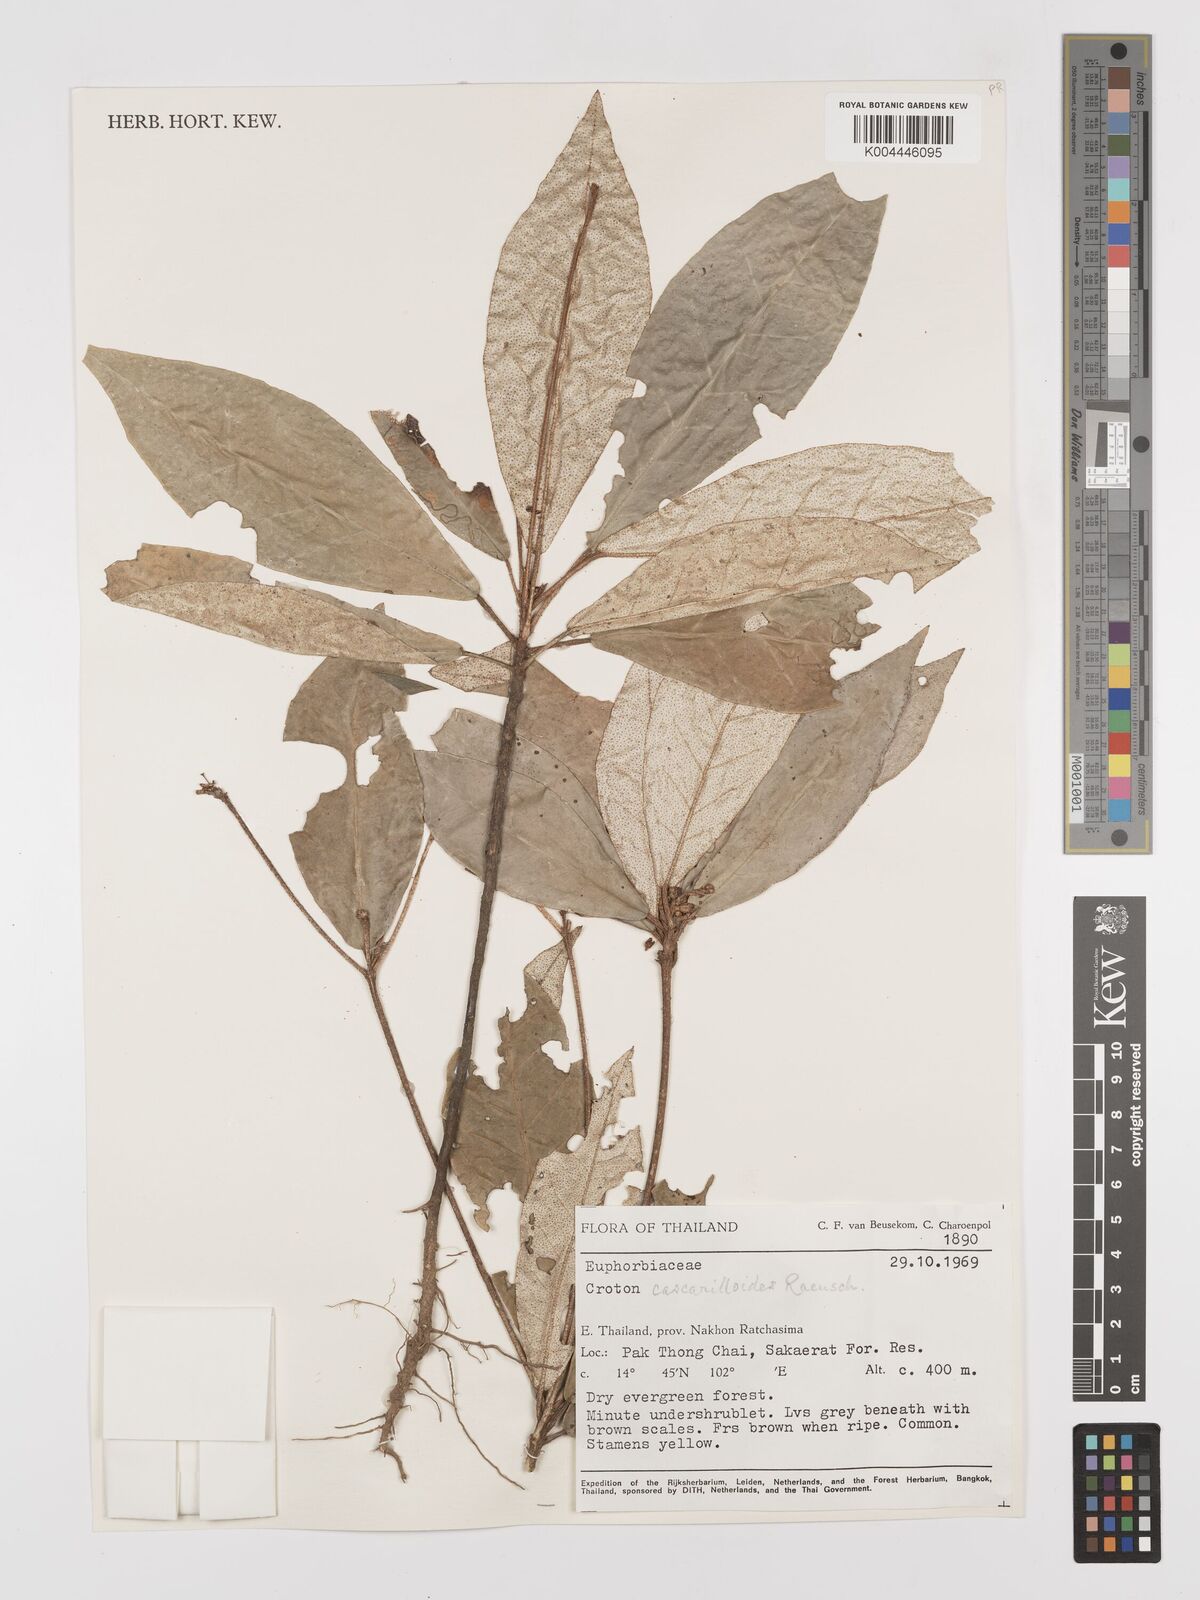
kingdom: Plantae
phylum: Tracheophyta
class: Magnoliopsida
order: Malpighiales
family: Euphorbiaceae
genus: Croton
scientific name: Croton cascarilloides
